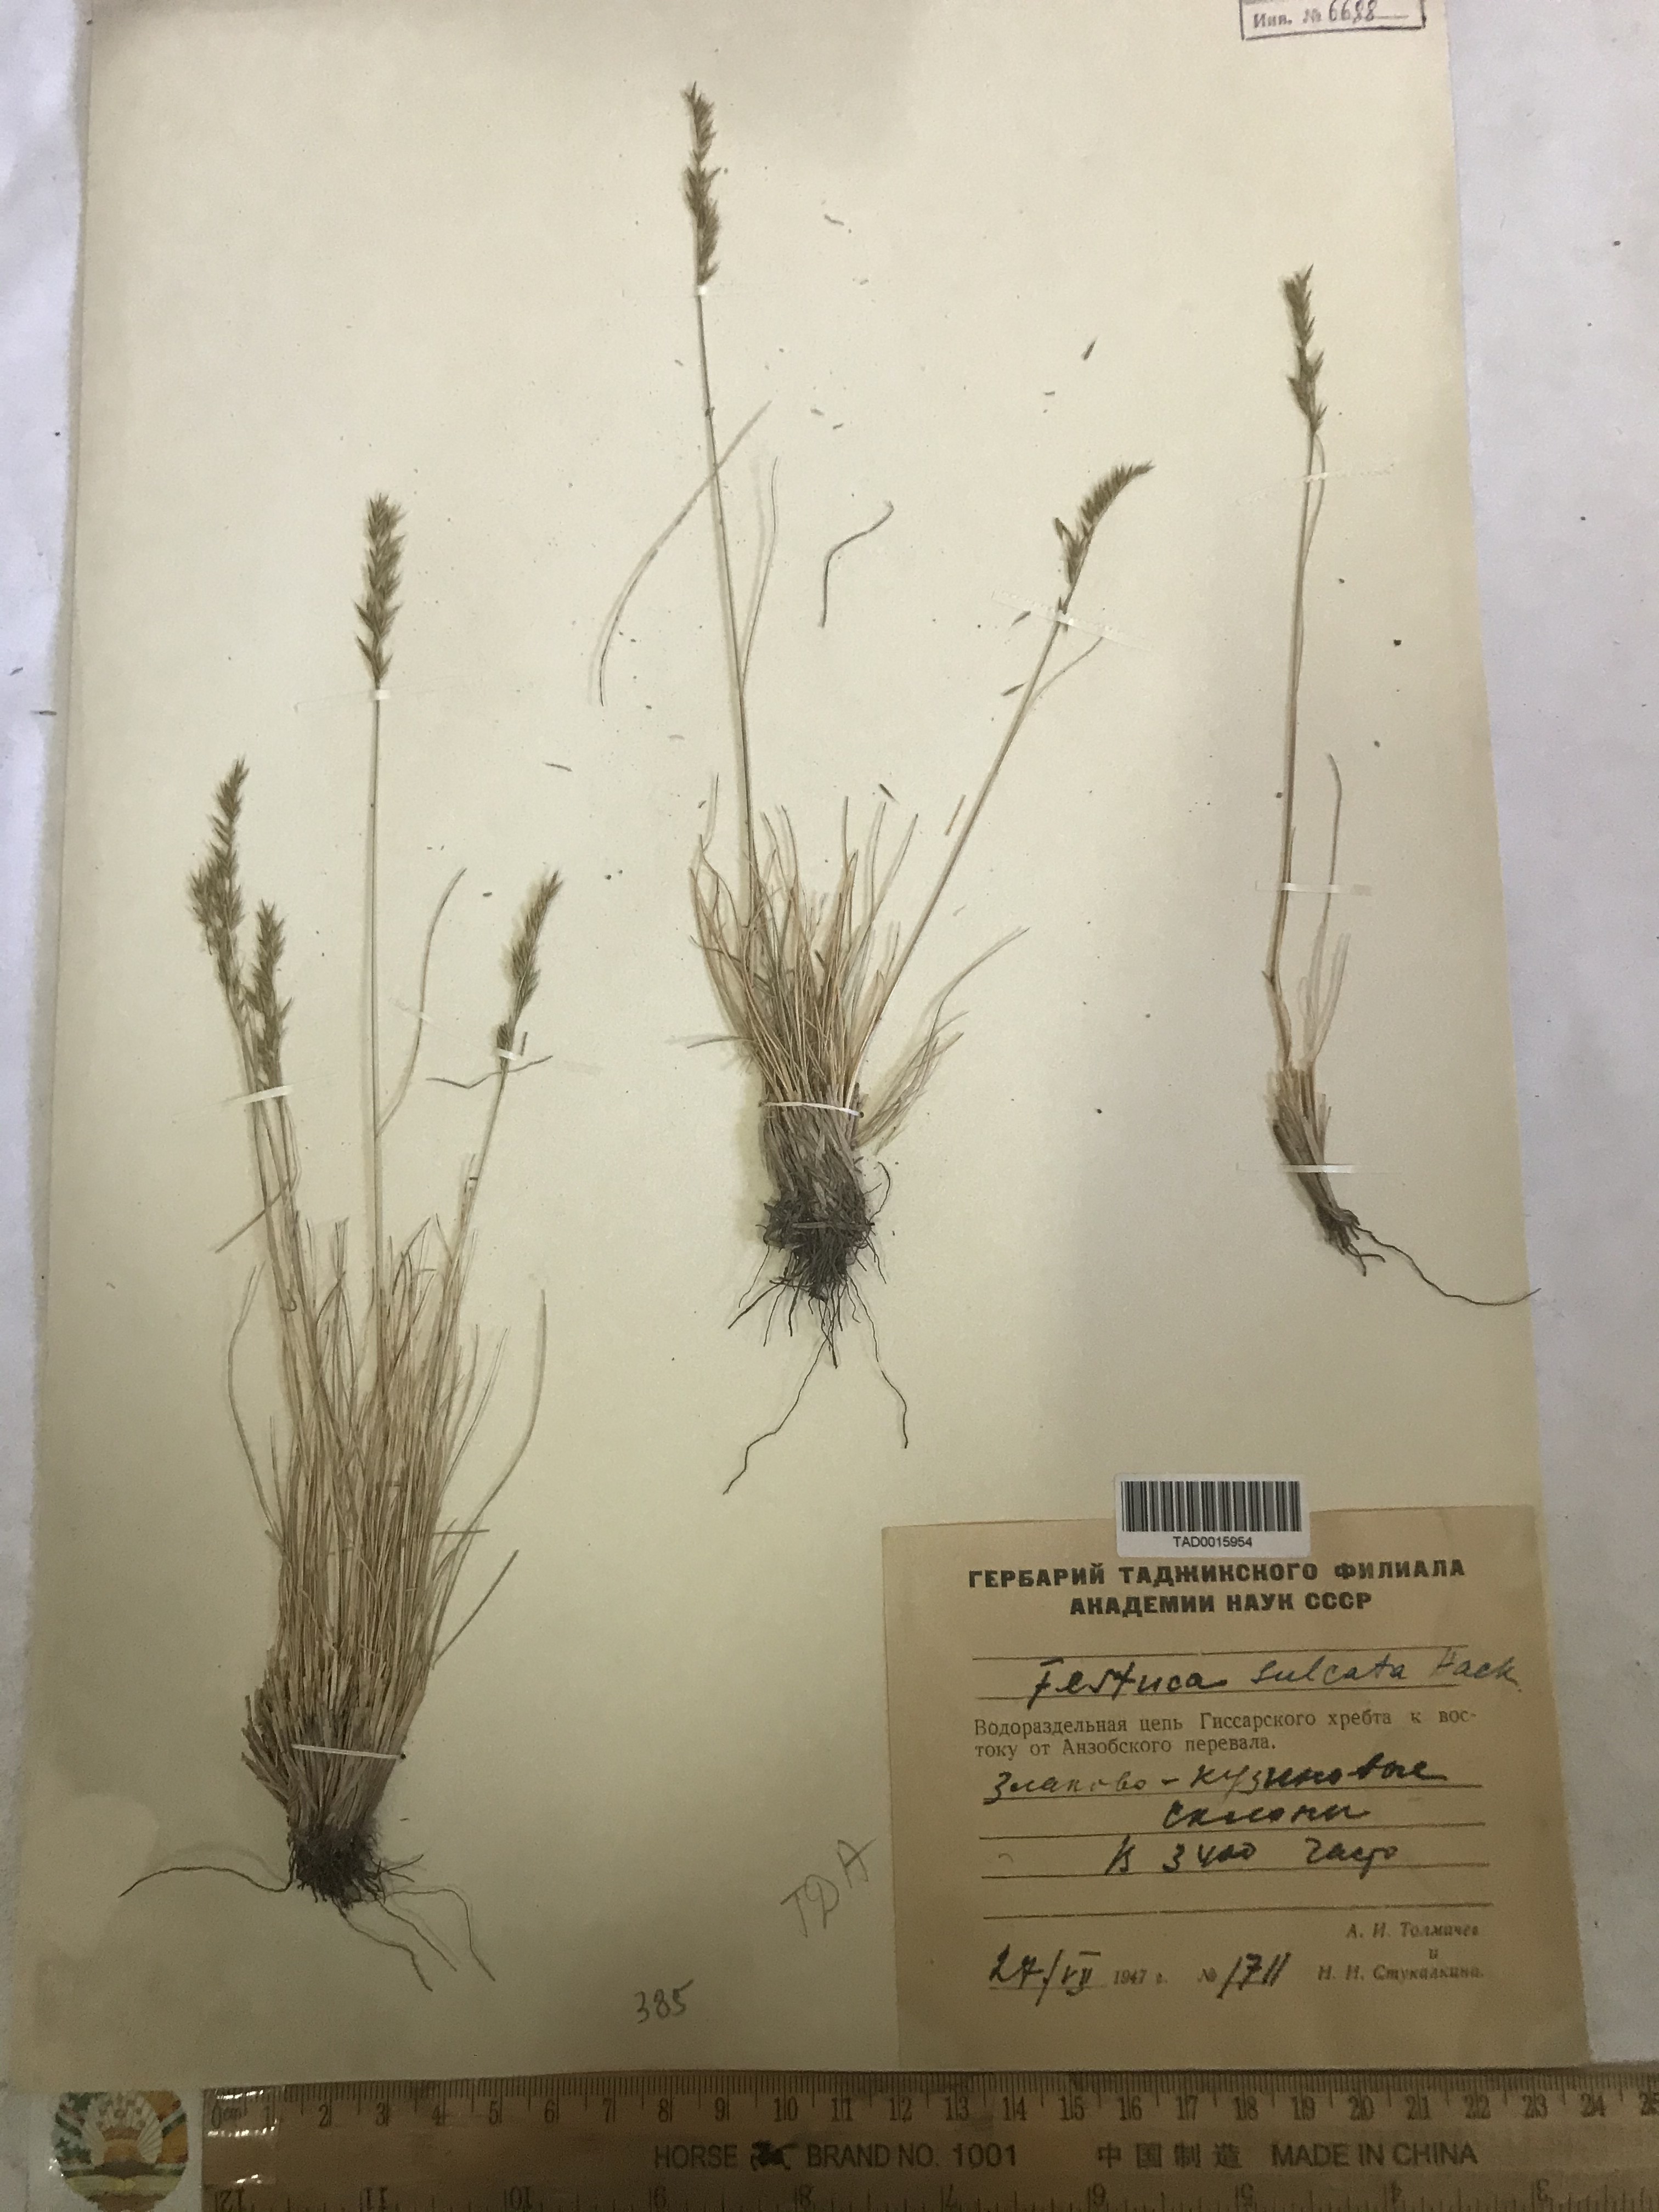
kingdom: Plantae
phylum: Tracheophyta
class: Liliopsida
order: Poales
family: Poaceae
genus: Festuca
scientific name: Festuca sulcata
